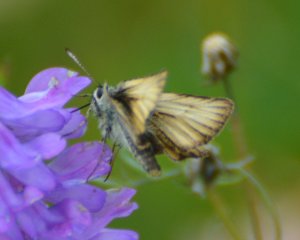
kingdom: Animalia
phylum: Arthropoda
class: Insecta
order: Lepidoptera
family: Hesperiidae
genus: Thymelicus
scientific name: Thymelicus lineola
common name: European Skipper
